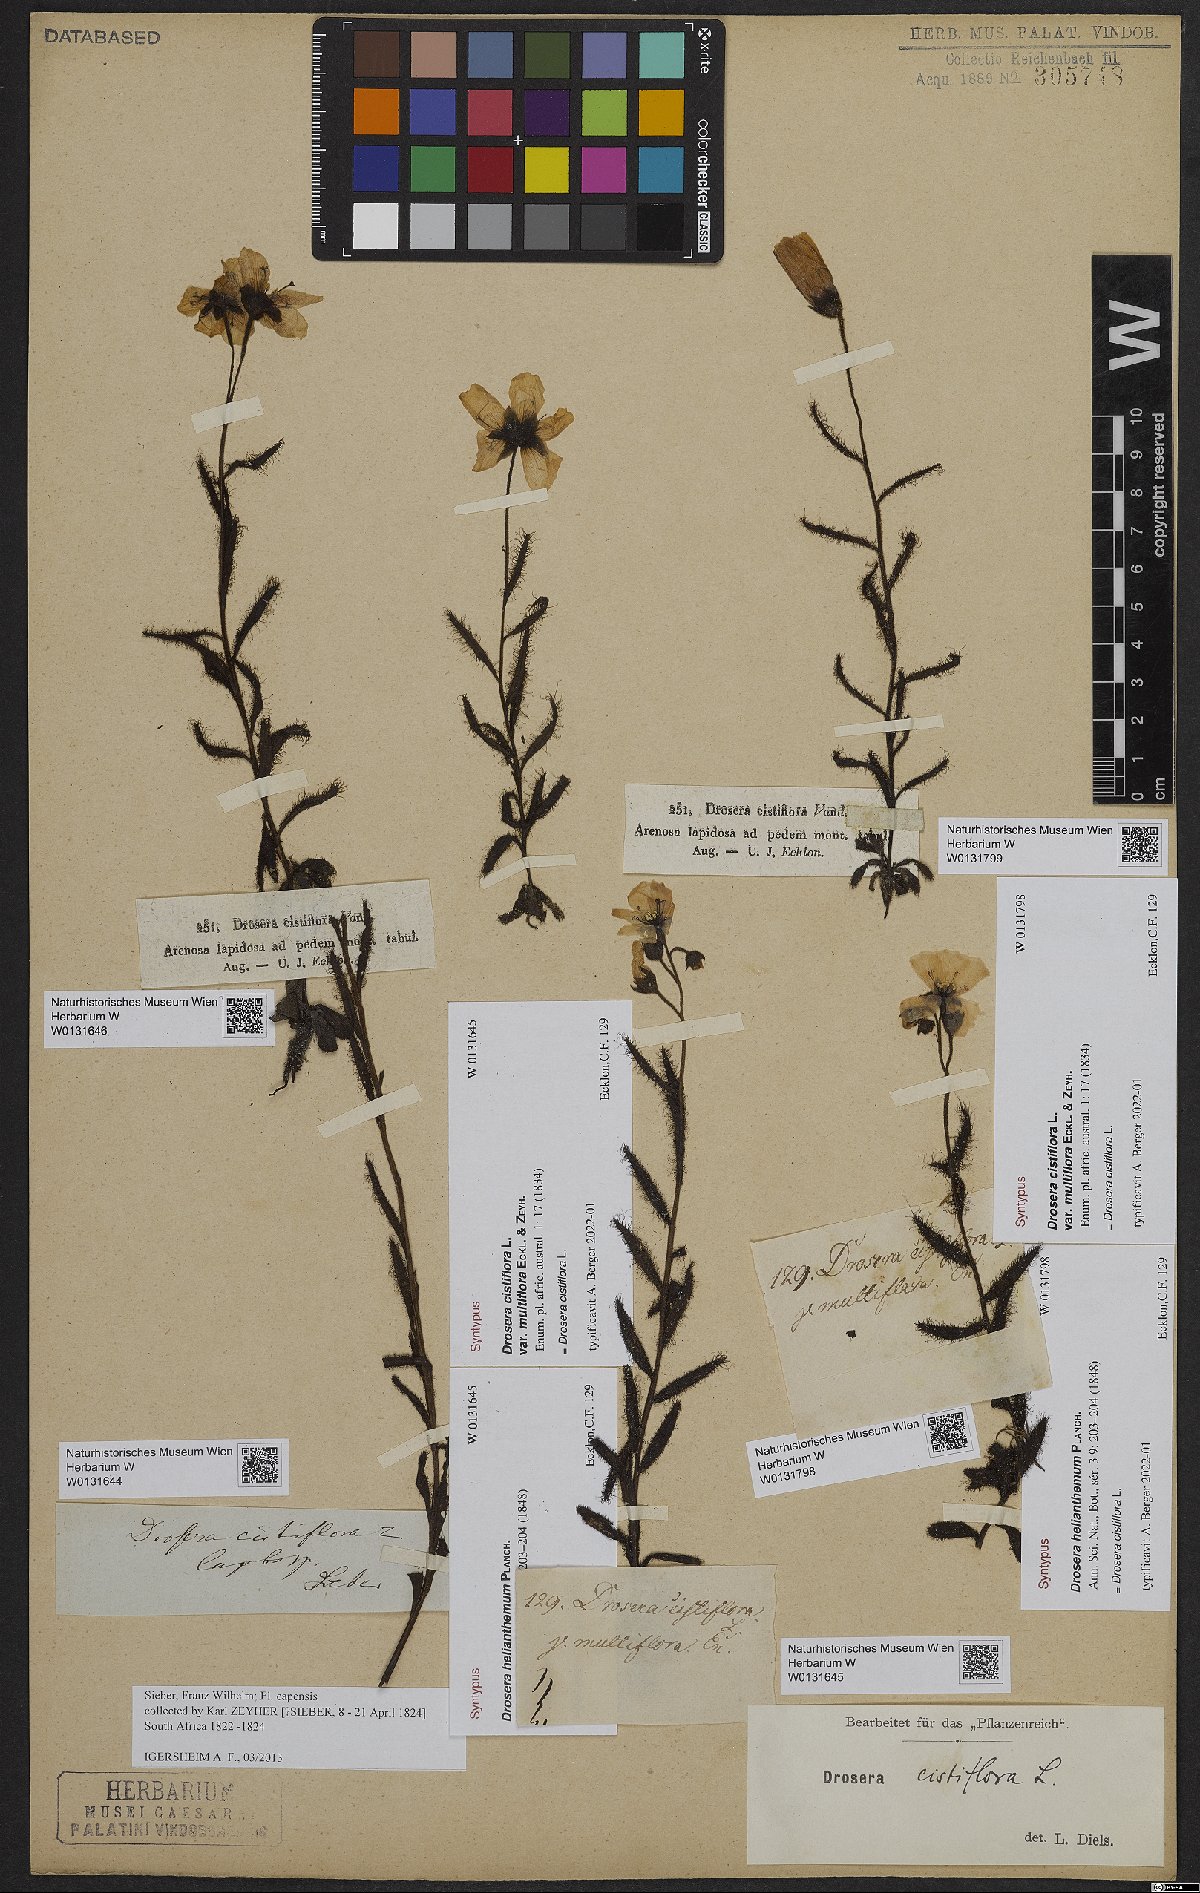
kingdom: Plantae
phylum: Tracheophyta
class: Magnoliopsida
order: Caryophyllales
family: Droseraceae
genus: Drosera
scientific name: Drosera cistiflora
